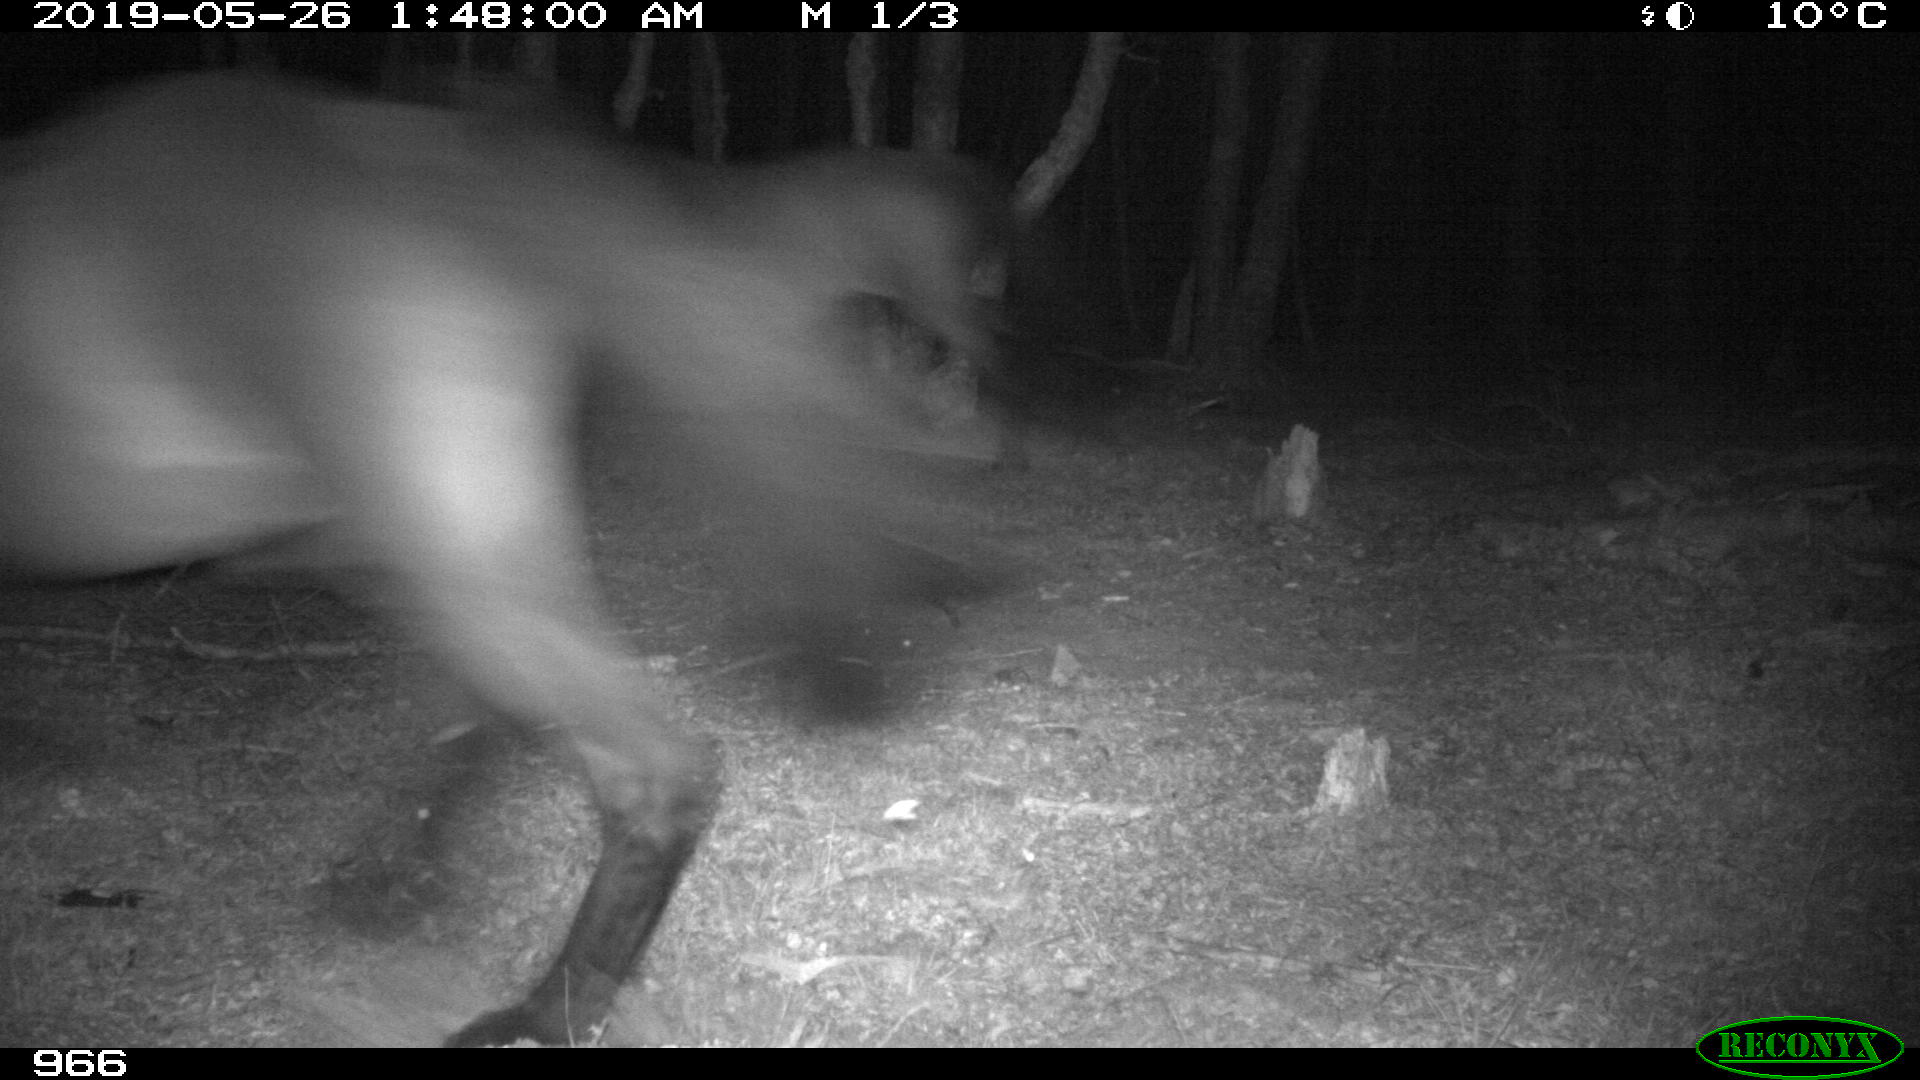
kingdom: Animalia
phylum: Chordata
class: Mammalia
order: Perissodactyla
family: Equidae
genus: Equus
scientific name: Equus caballus
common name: Horse
